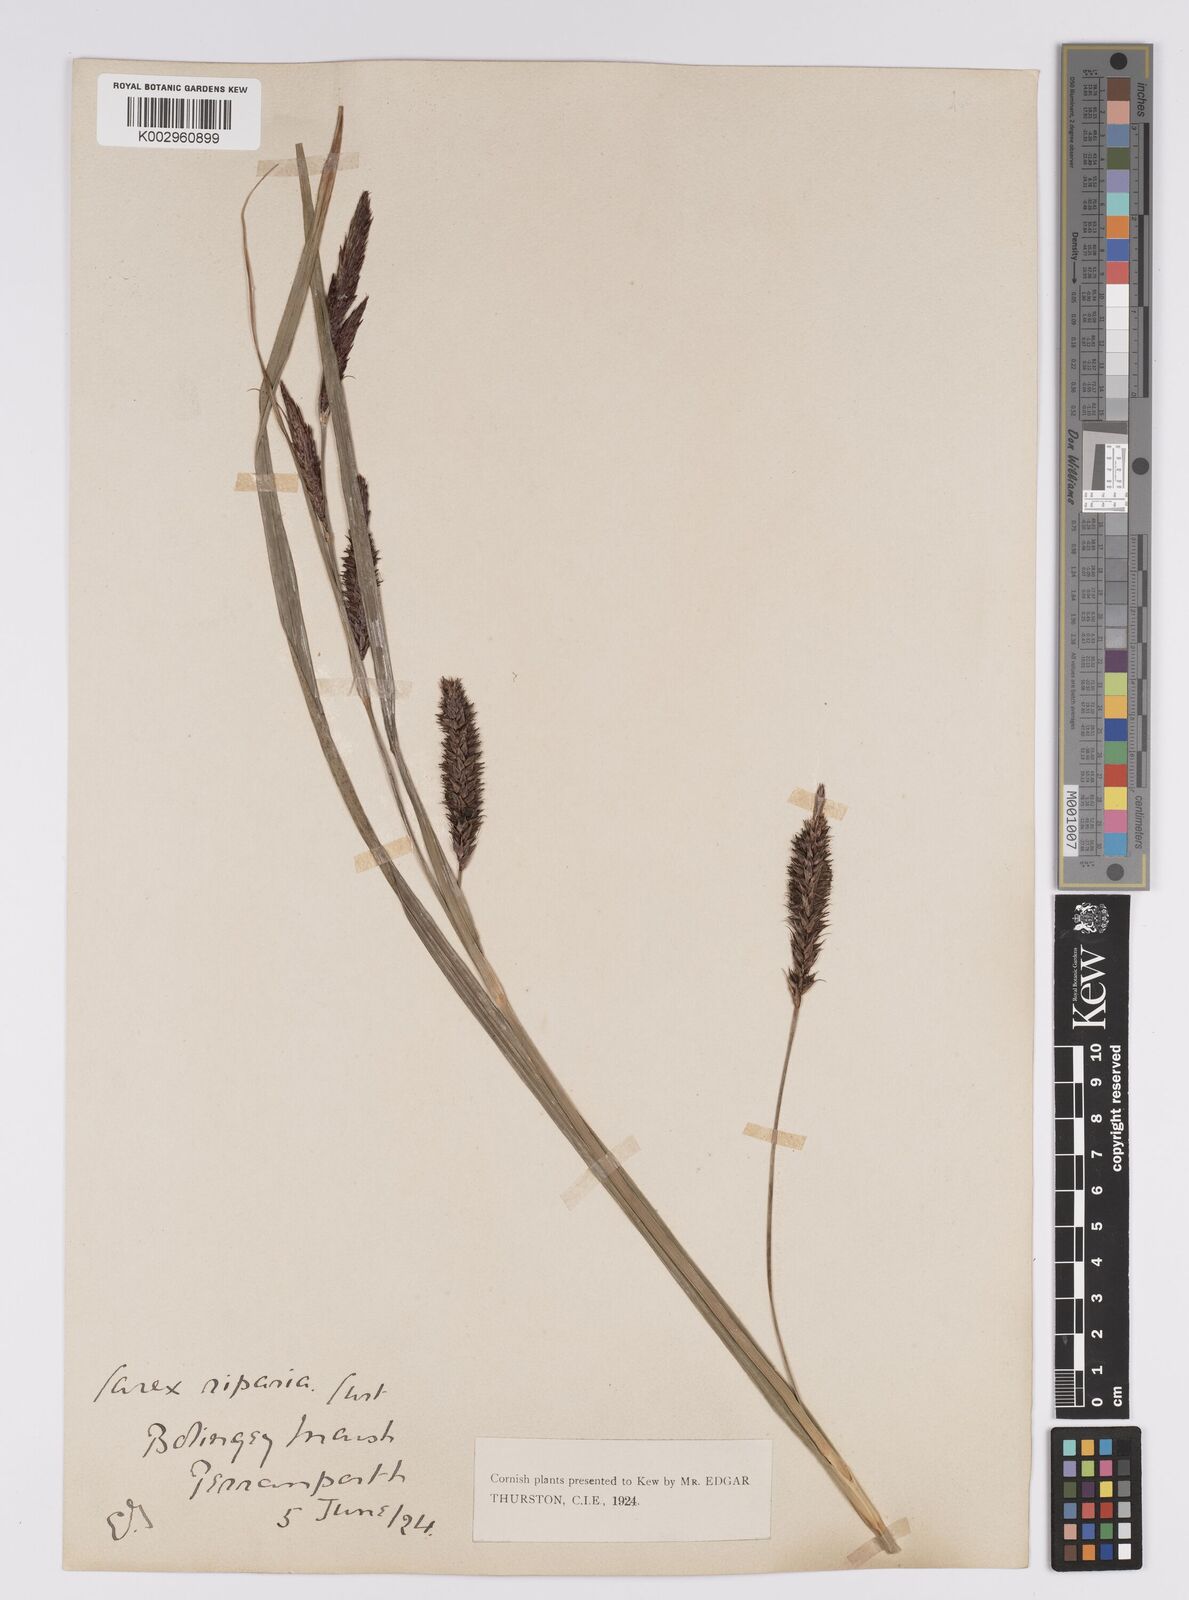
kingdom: Plantae
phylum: Tracheophyta
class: Liliopsida
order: Poales
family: Cyperaceae
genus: Carex
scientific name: Carex riparia
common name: Greater pond-sedge
